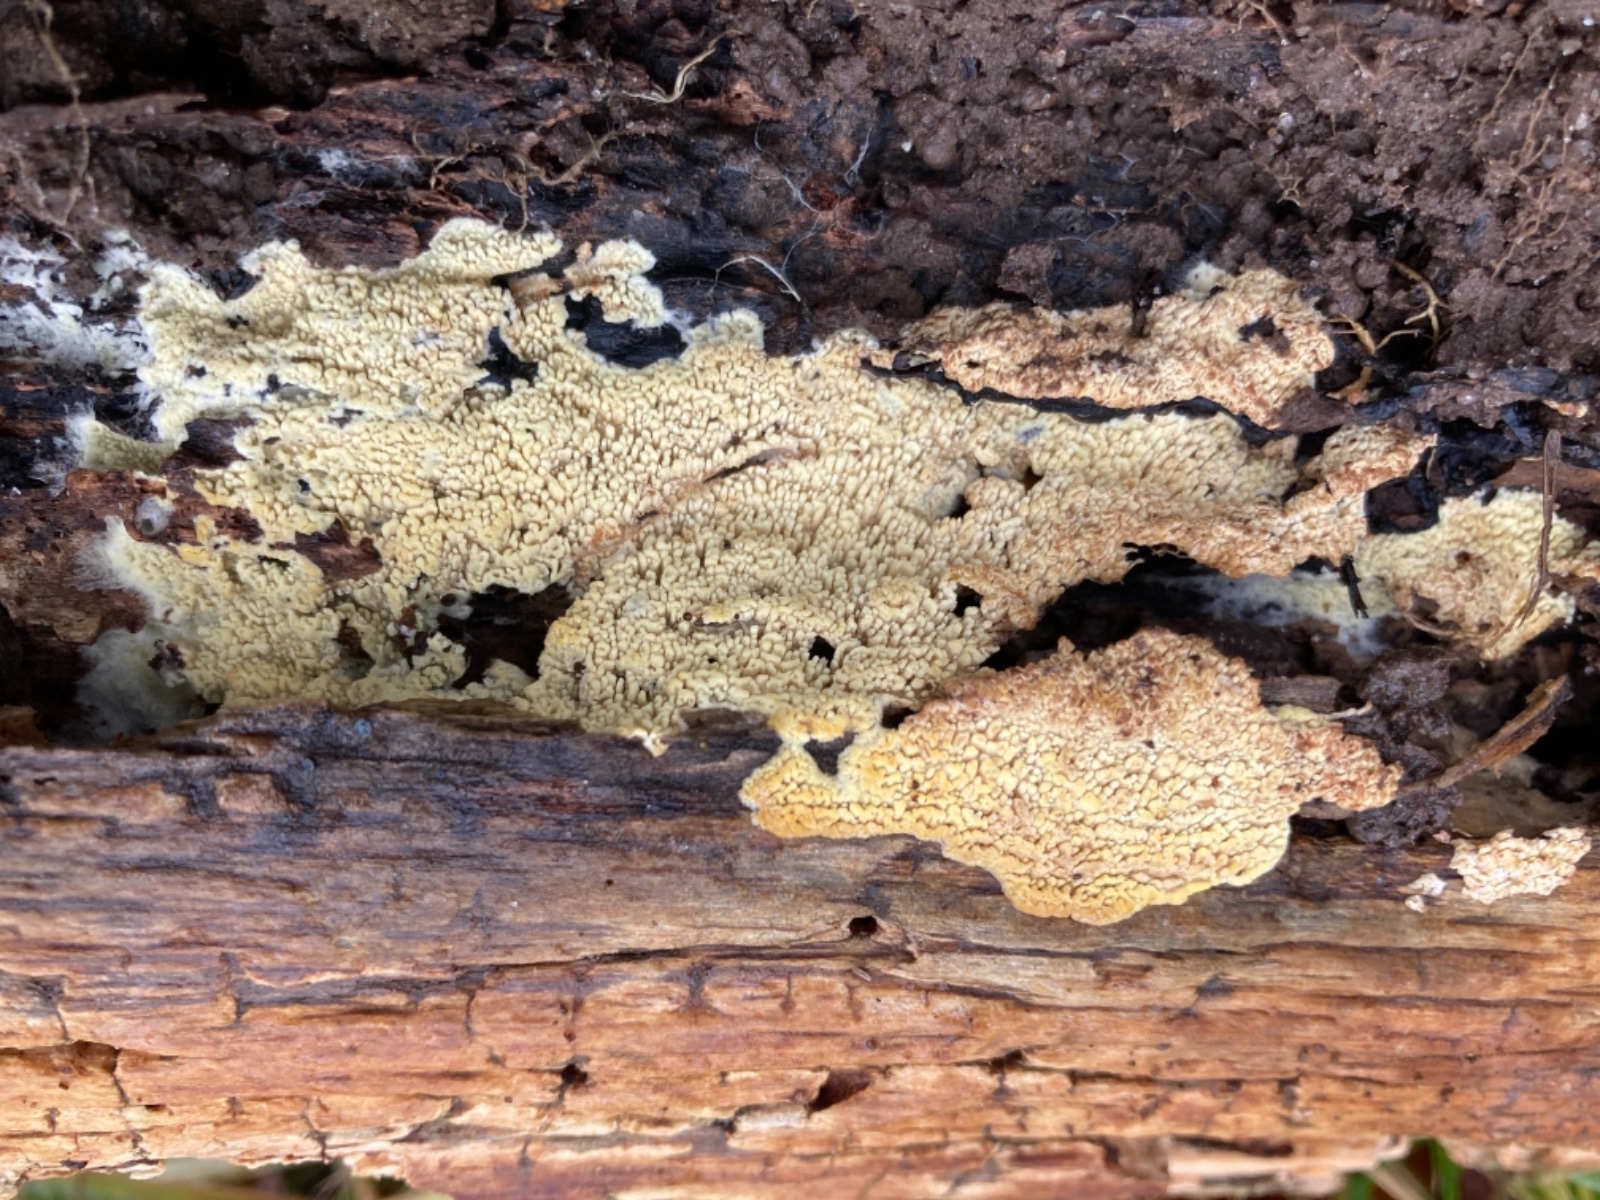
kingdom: Fungi
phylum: Basidiomycota
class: Agaricomycetes
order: Agaricales
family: Stephanosporaceae
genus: Cristinia
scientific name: Cristinia eichleri
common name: tandet citrushinde
